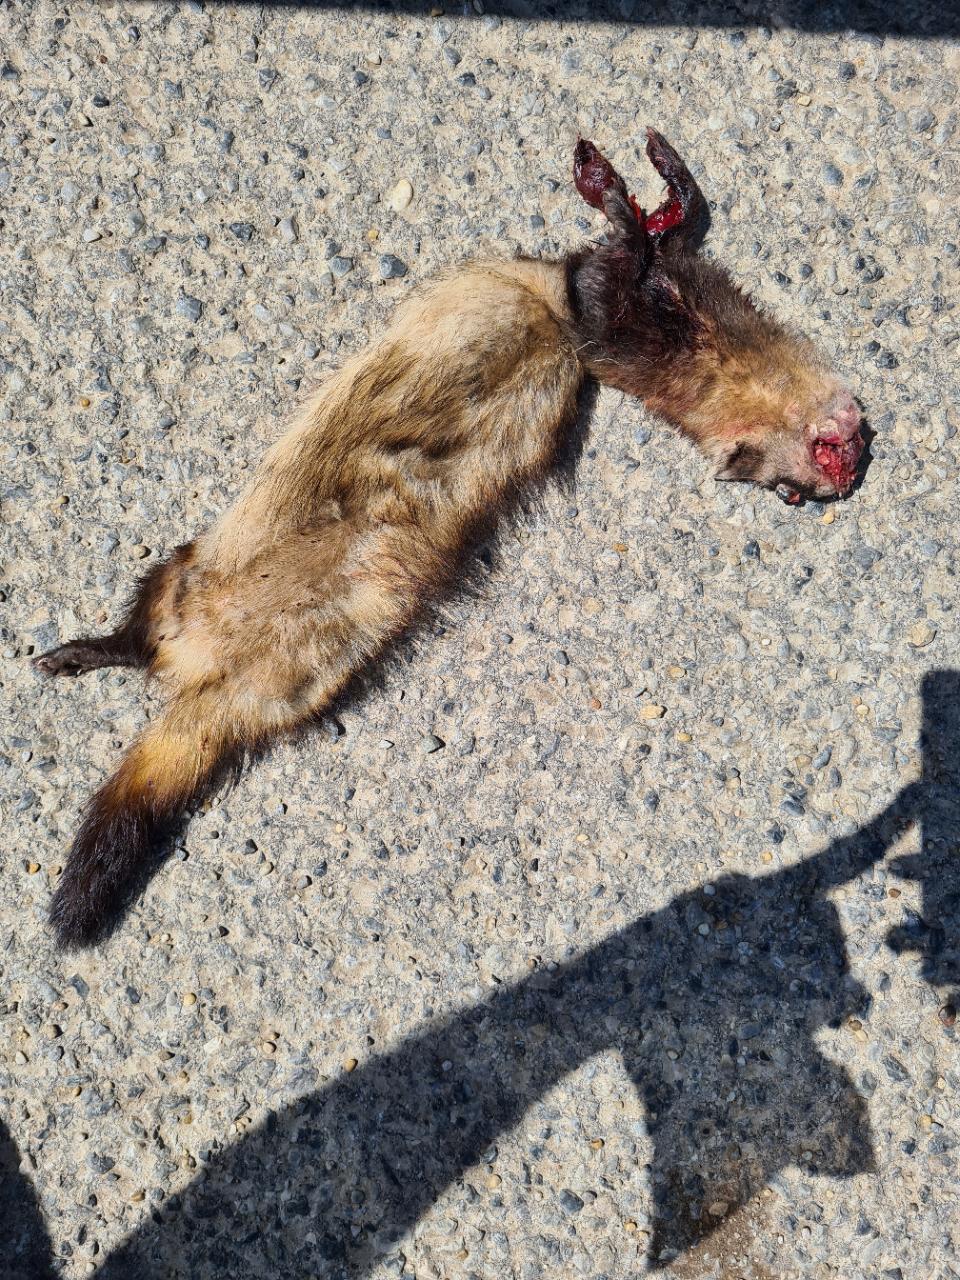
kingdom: Animalia
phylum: Chordata
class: Mammalia
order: Carnivora
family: Mustelidae
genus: Mustela
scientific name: Mustela eversmanii
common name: Steppe polecat
